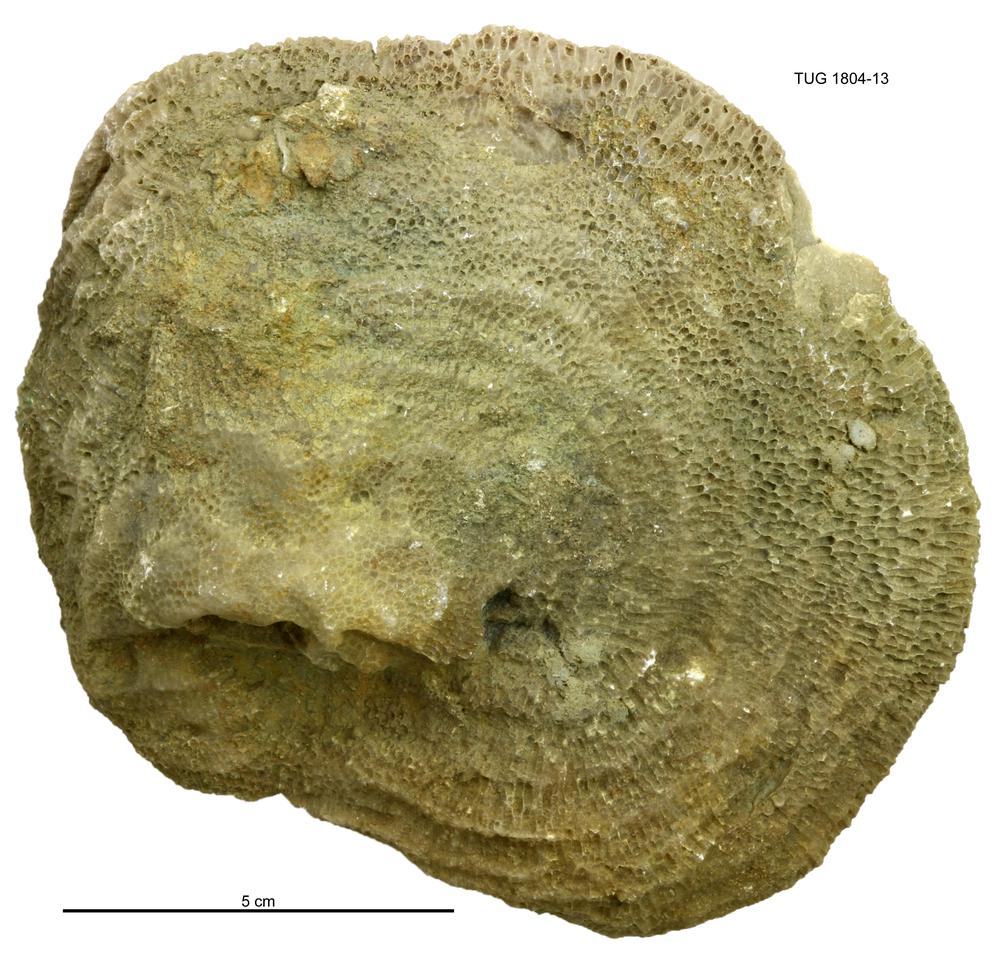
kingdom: Animalia
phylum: Cnidaria
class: Anthozoa
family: Favositidae
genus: Paleofavosites
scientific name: Paleofavosites
